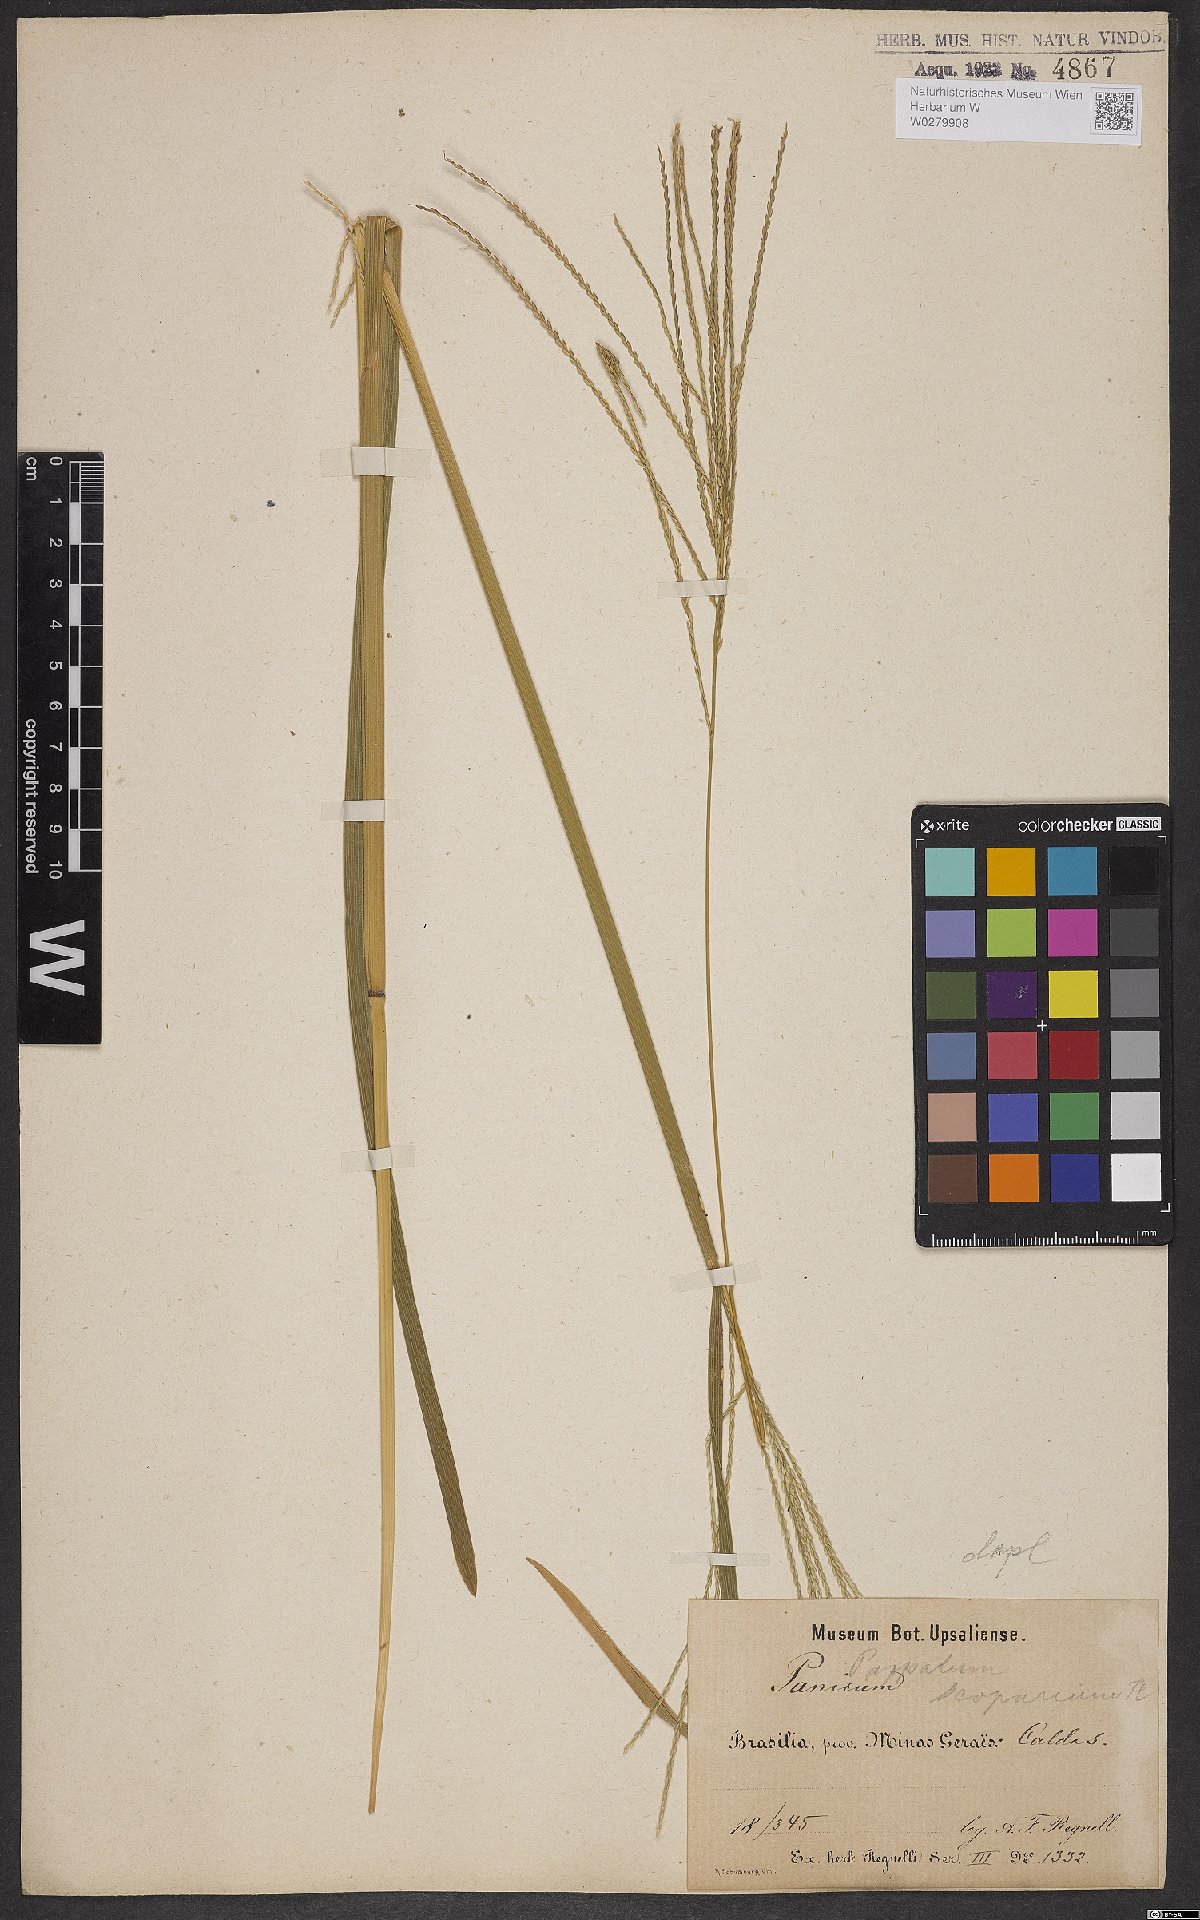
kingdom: Plantae
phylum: Tracheophyta
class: Liliopsida
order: Poales
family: Poaceae
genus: Axonopus
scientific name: Axonopus scoparius
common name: Imperial grass
